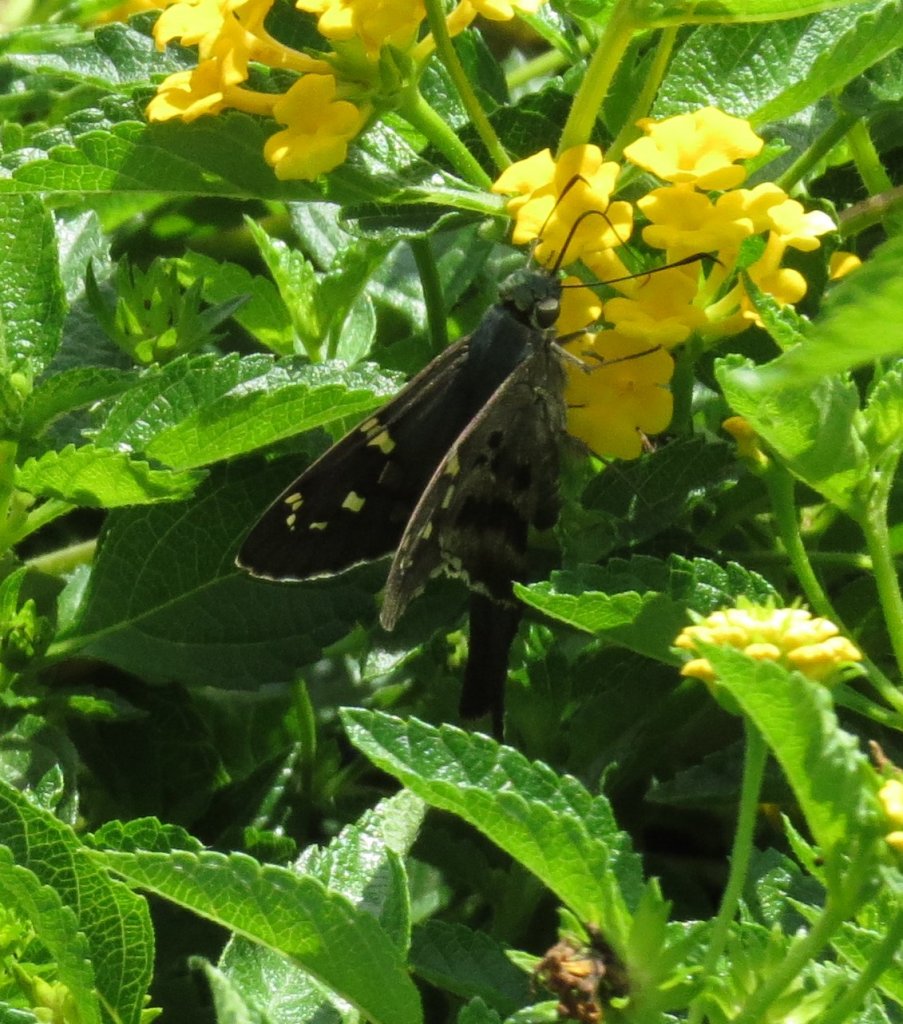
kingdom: Animalia
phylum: Arthropoda
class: Insecta
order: Lepidoptera
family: Hesperiidae
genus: Urbanus
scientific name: Urbanus proteus
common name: Long-tailed Skipper
